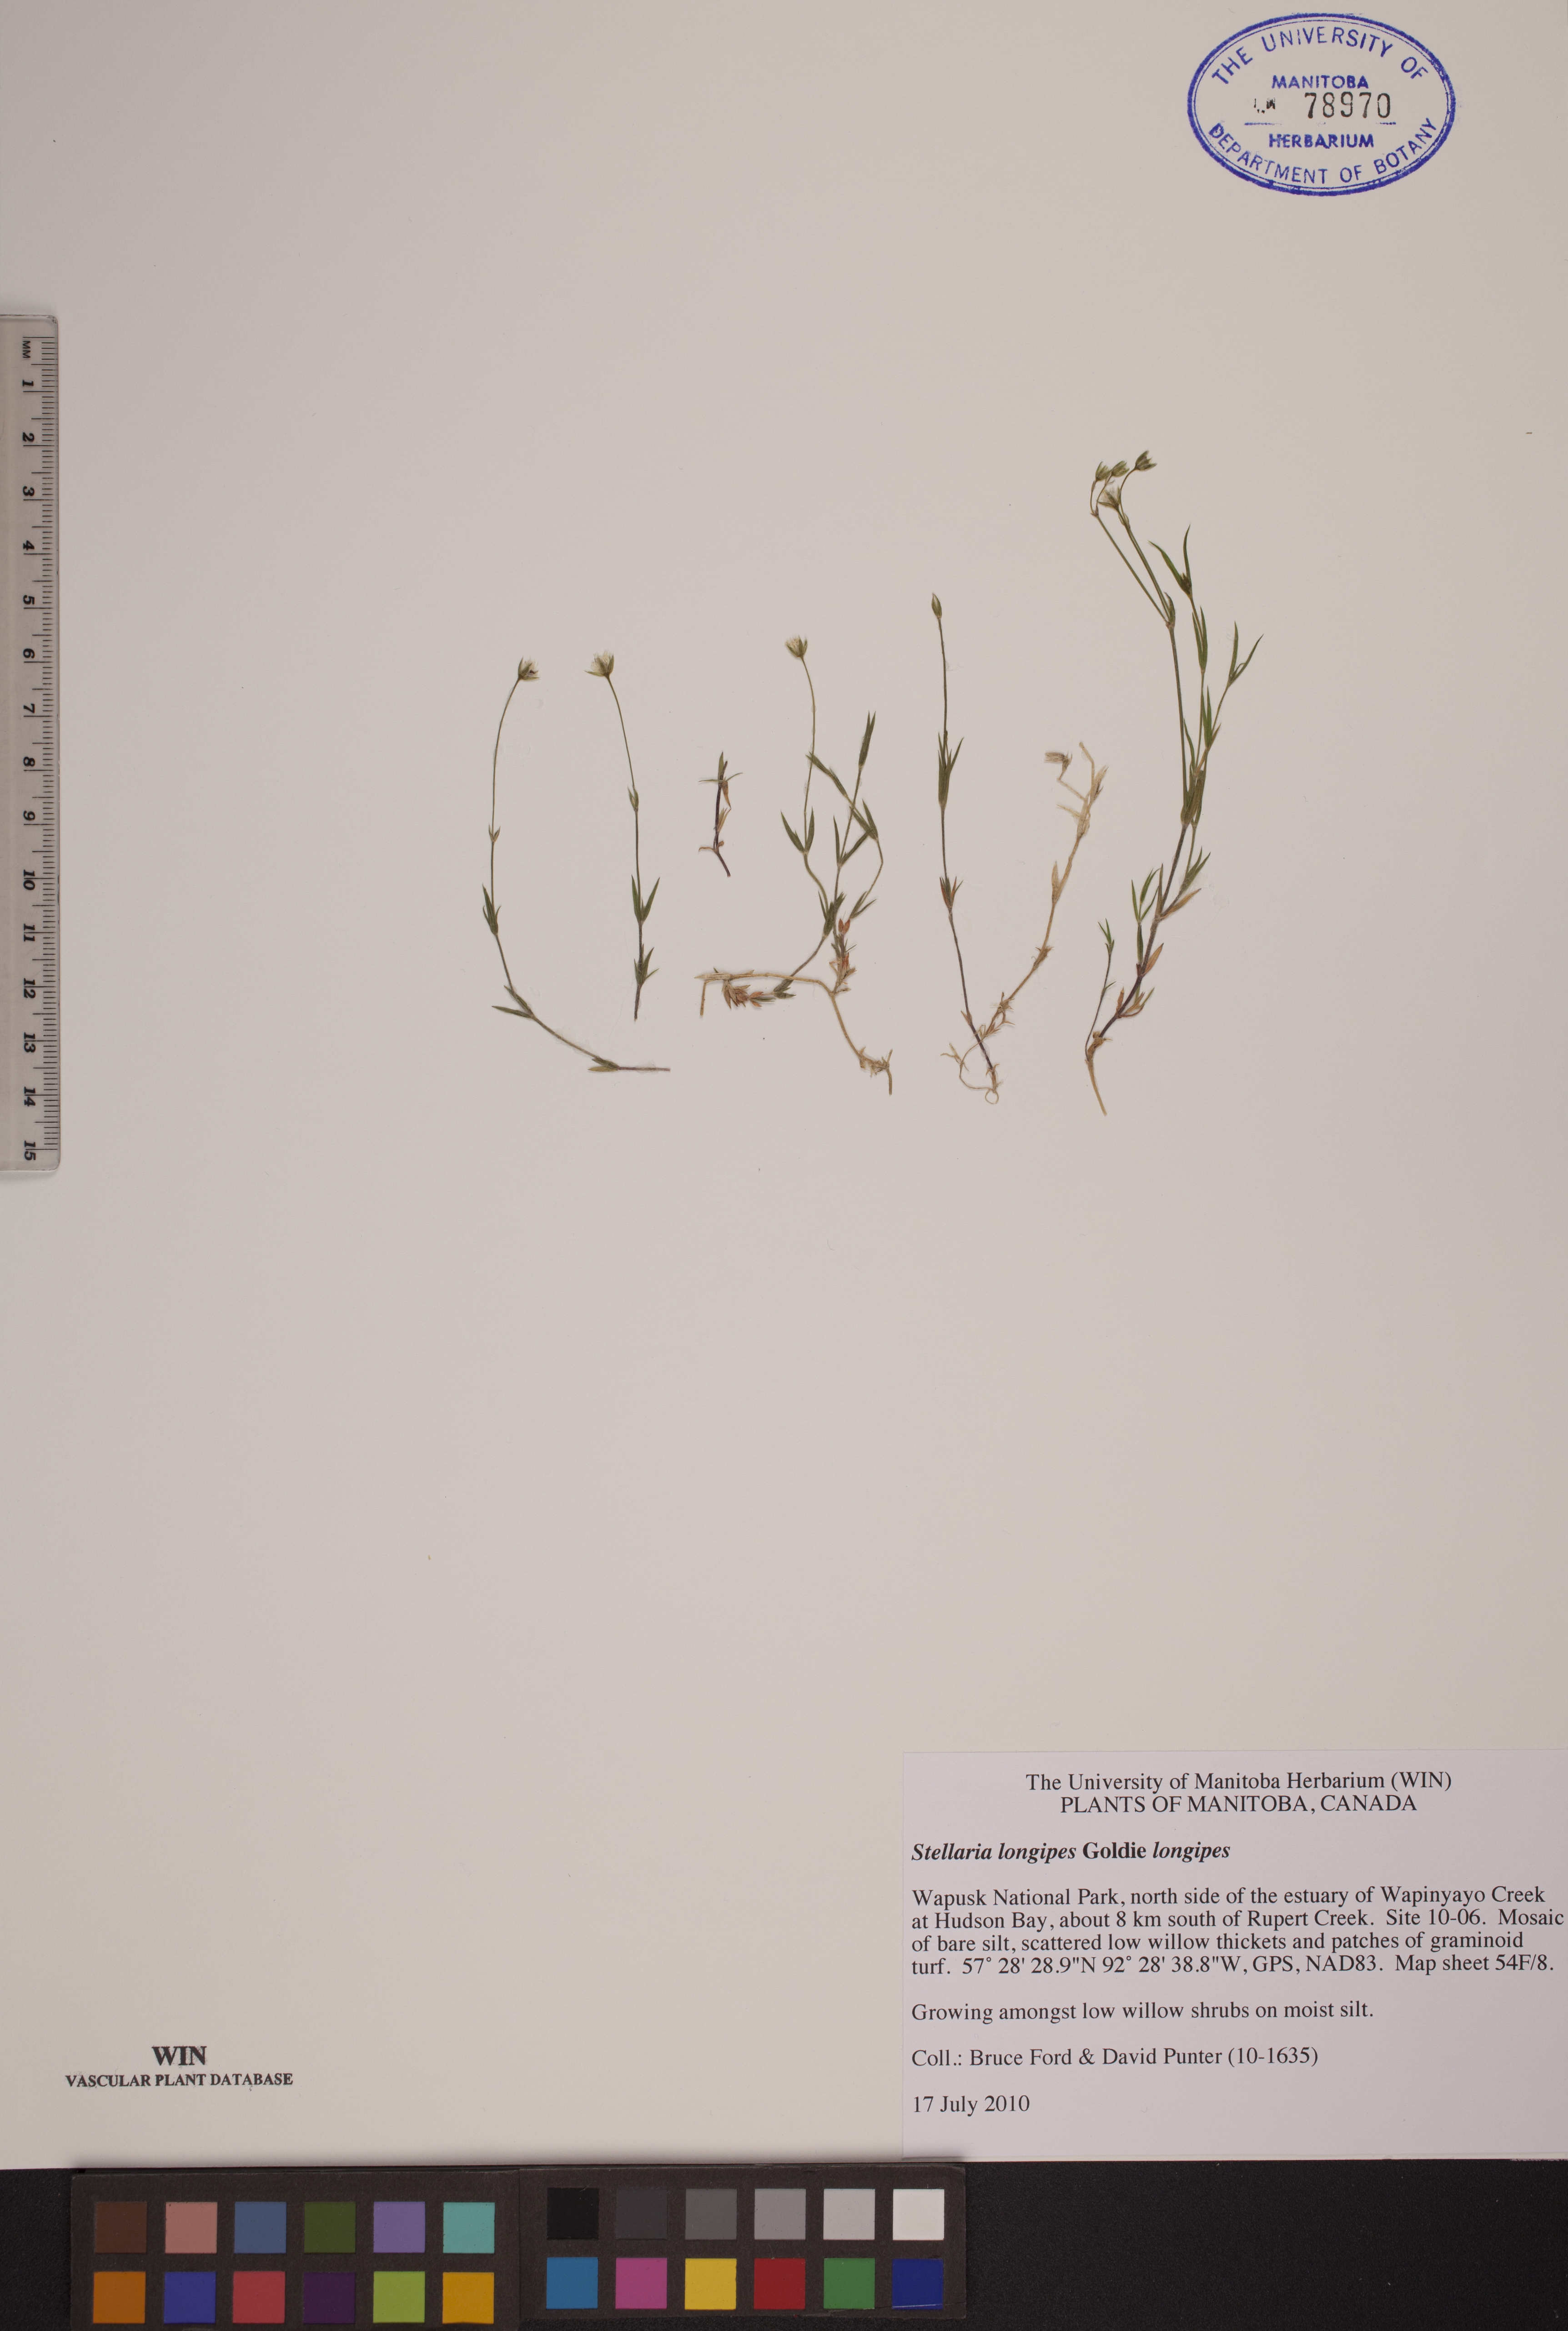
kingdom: Plantae
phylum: Tracheophyta
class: Magnoliopsida
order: Caryophyllales
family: Caryophyllaceae
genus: Stellaria
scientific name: Stellaria longipes
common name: Goldie's starwort
